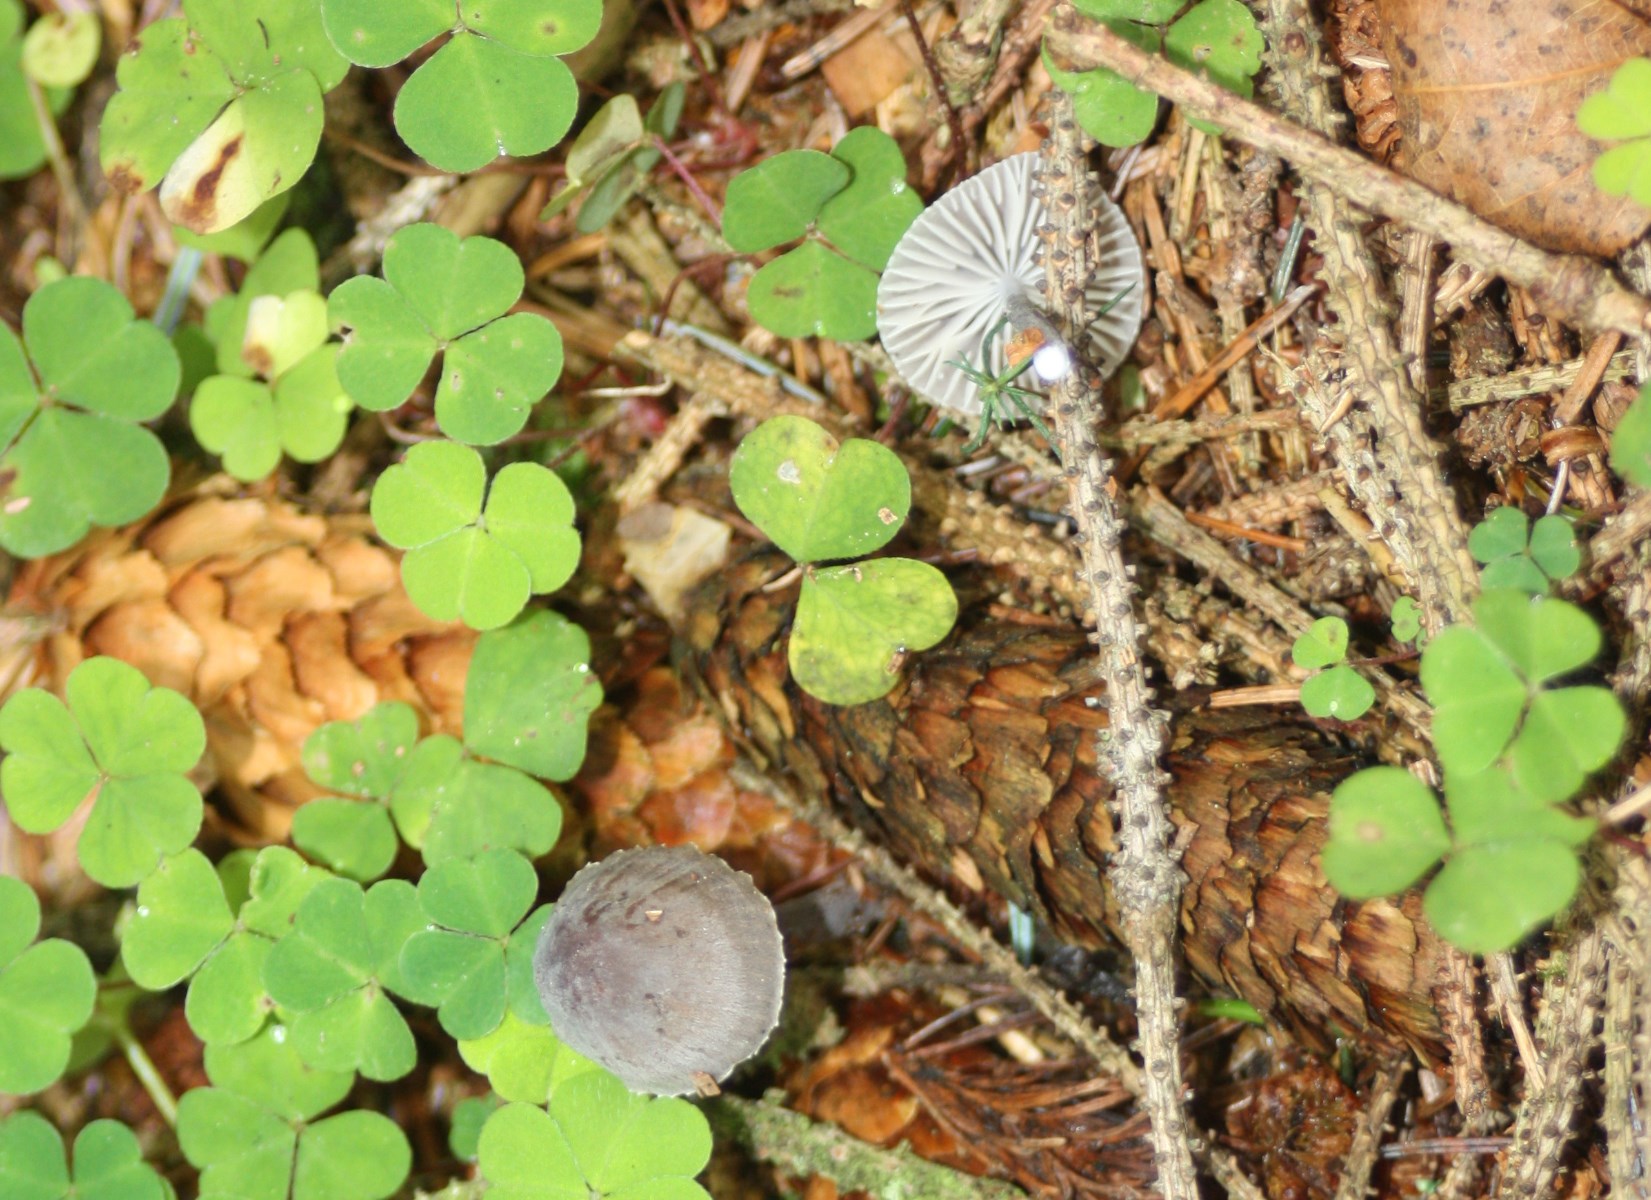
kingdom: Fungi
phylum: Basidiomycota
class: Agaricomycetes
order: Agaricales
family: Mycenaceae
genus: Mycena
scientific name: Mycena galopus
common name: hvidmælket huesvamp
